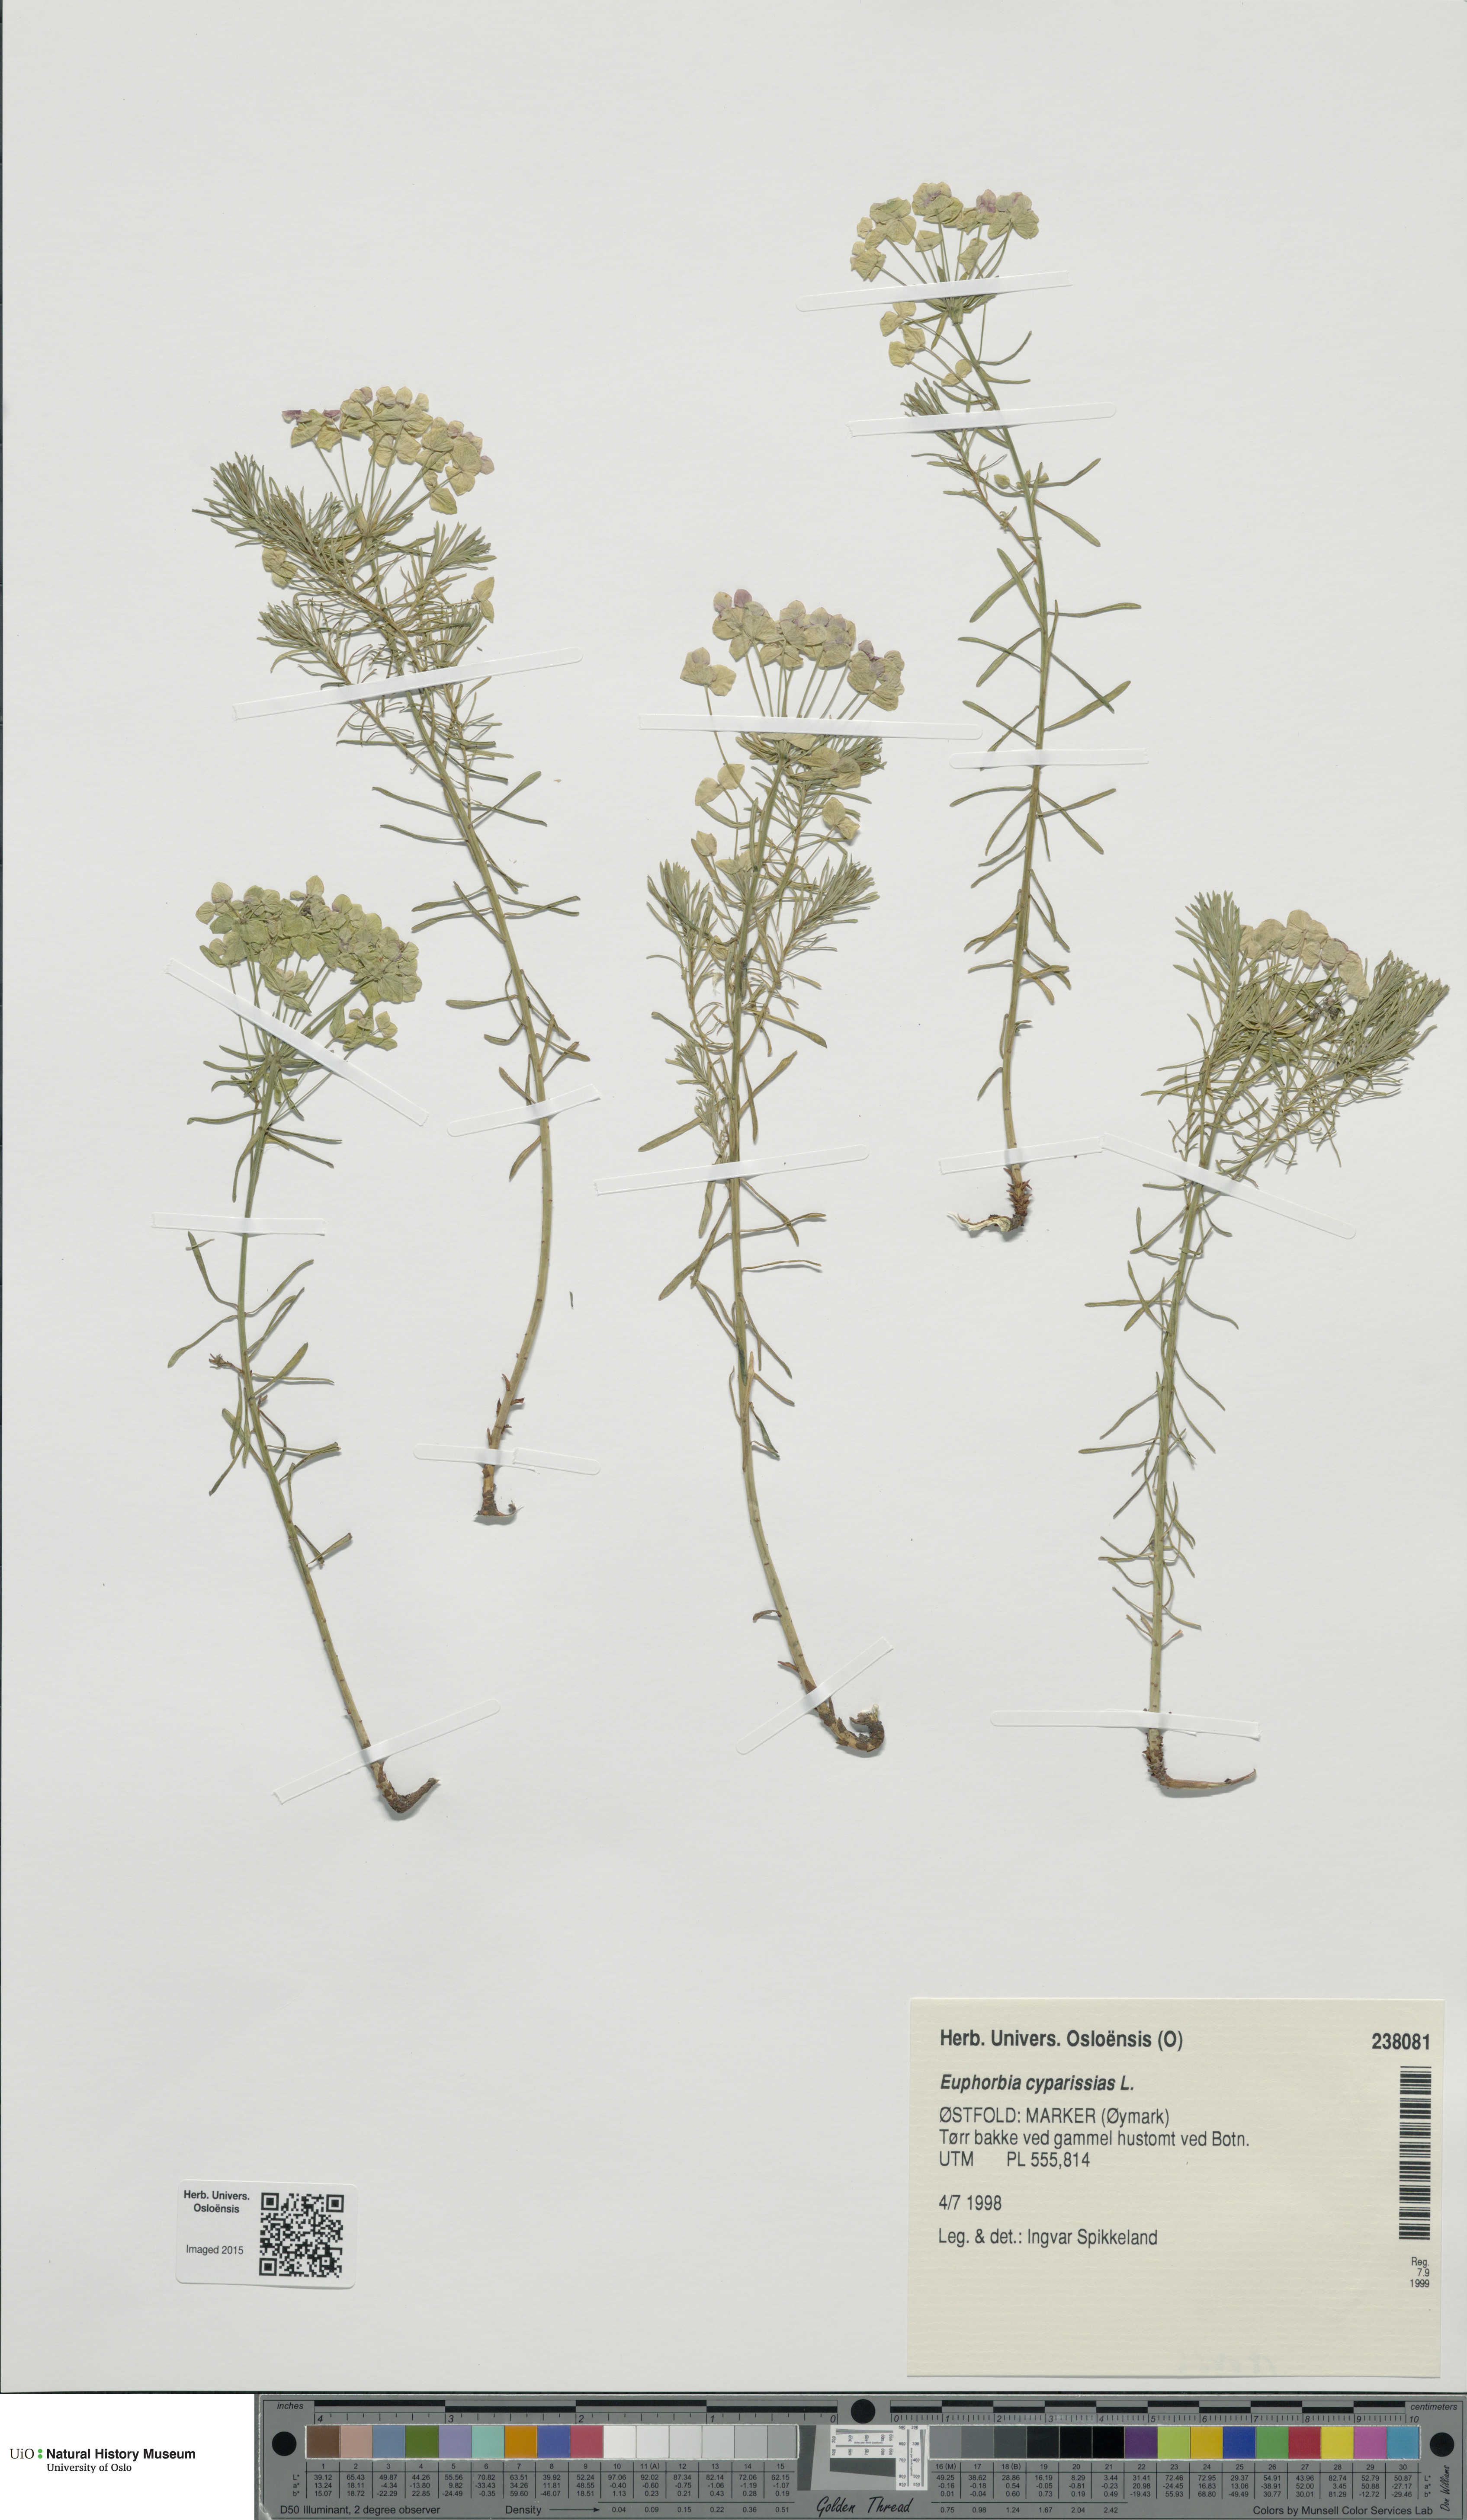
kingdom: Plantae
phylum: Tracheophyta
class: Magnoliopsida
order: Malpighiales
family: Euphorbiaceae
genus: Euphorbia
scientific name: Euphorbia cyparissias
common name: Cypress spurge
